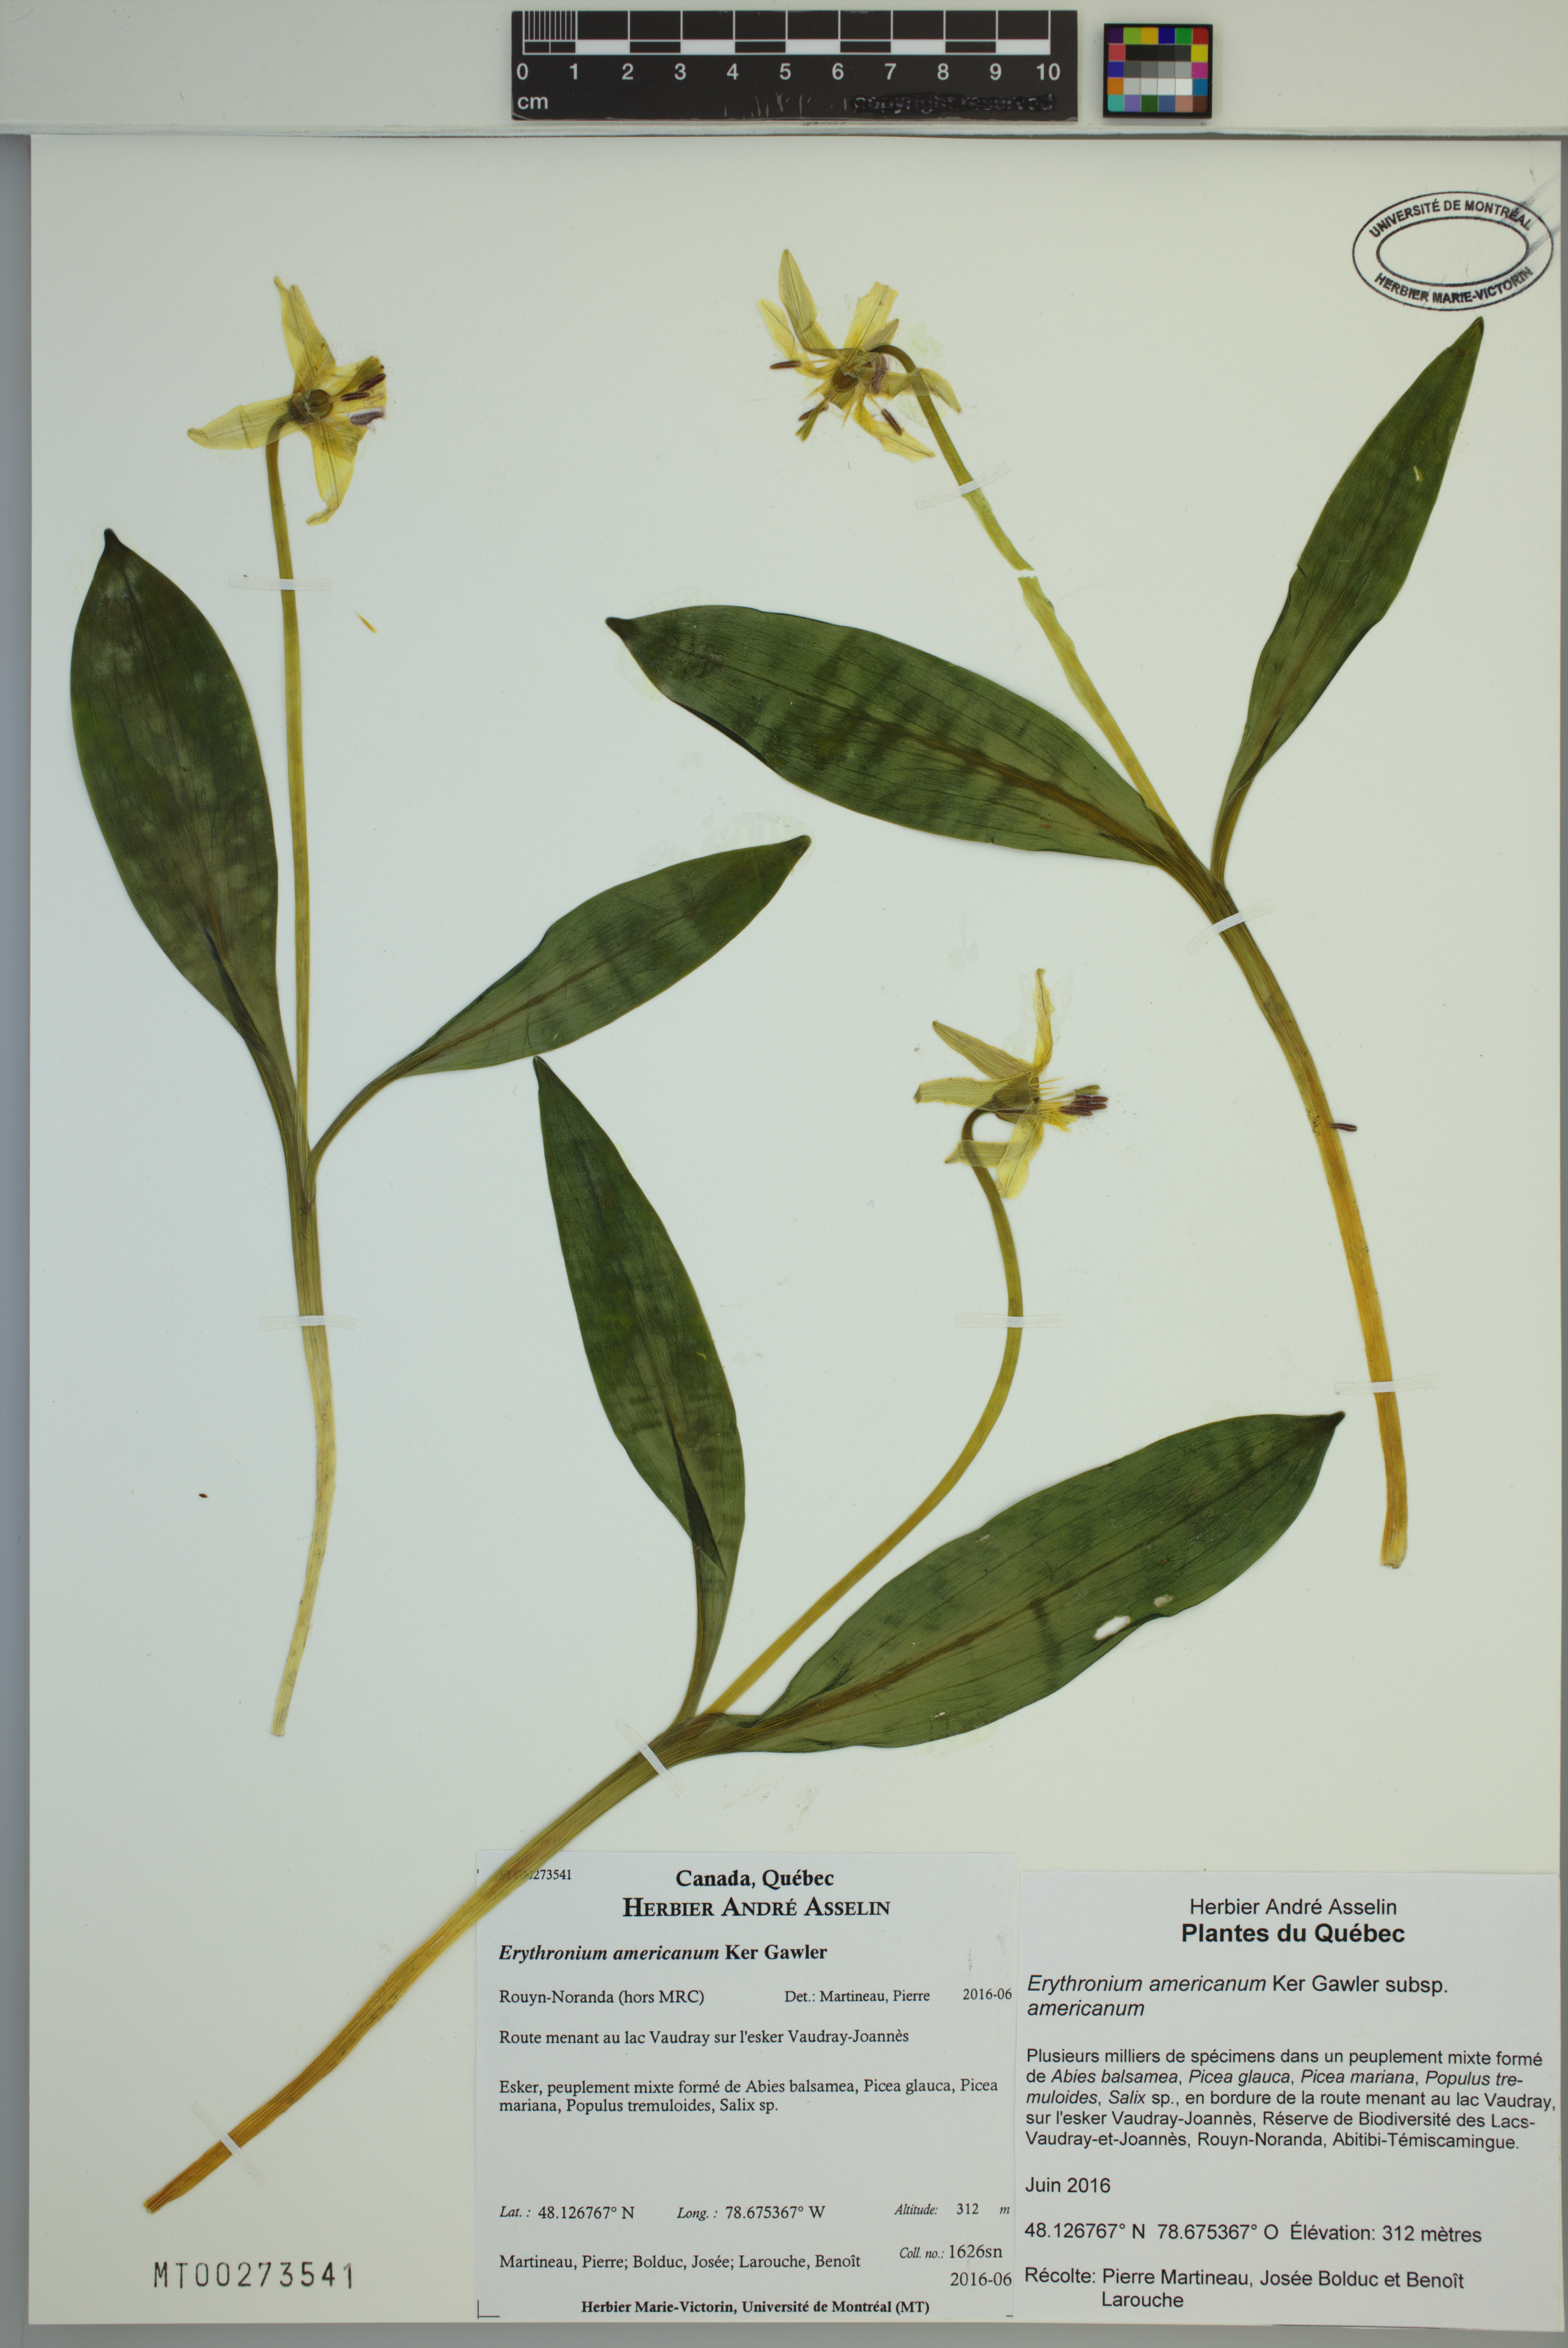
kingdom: Plantae
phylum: Tracheophyta
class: Liliopsida
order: Liliales
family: Liliaceae
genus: Erythronium
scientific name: Erythronium americanum
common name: Yellow adder's-tongue
